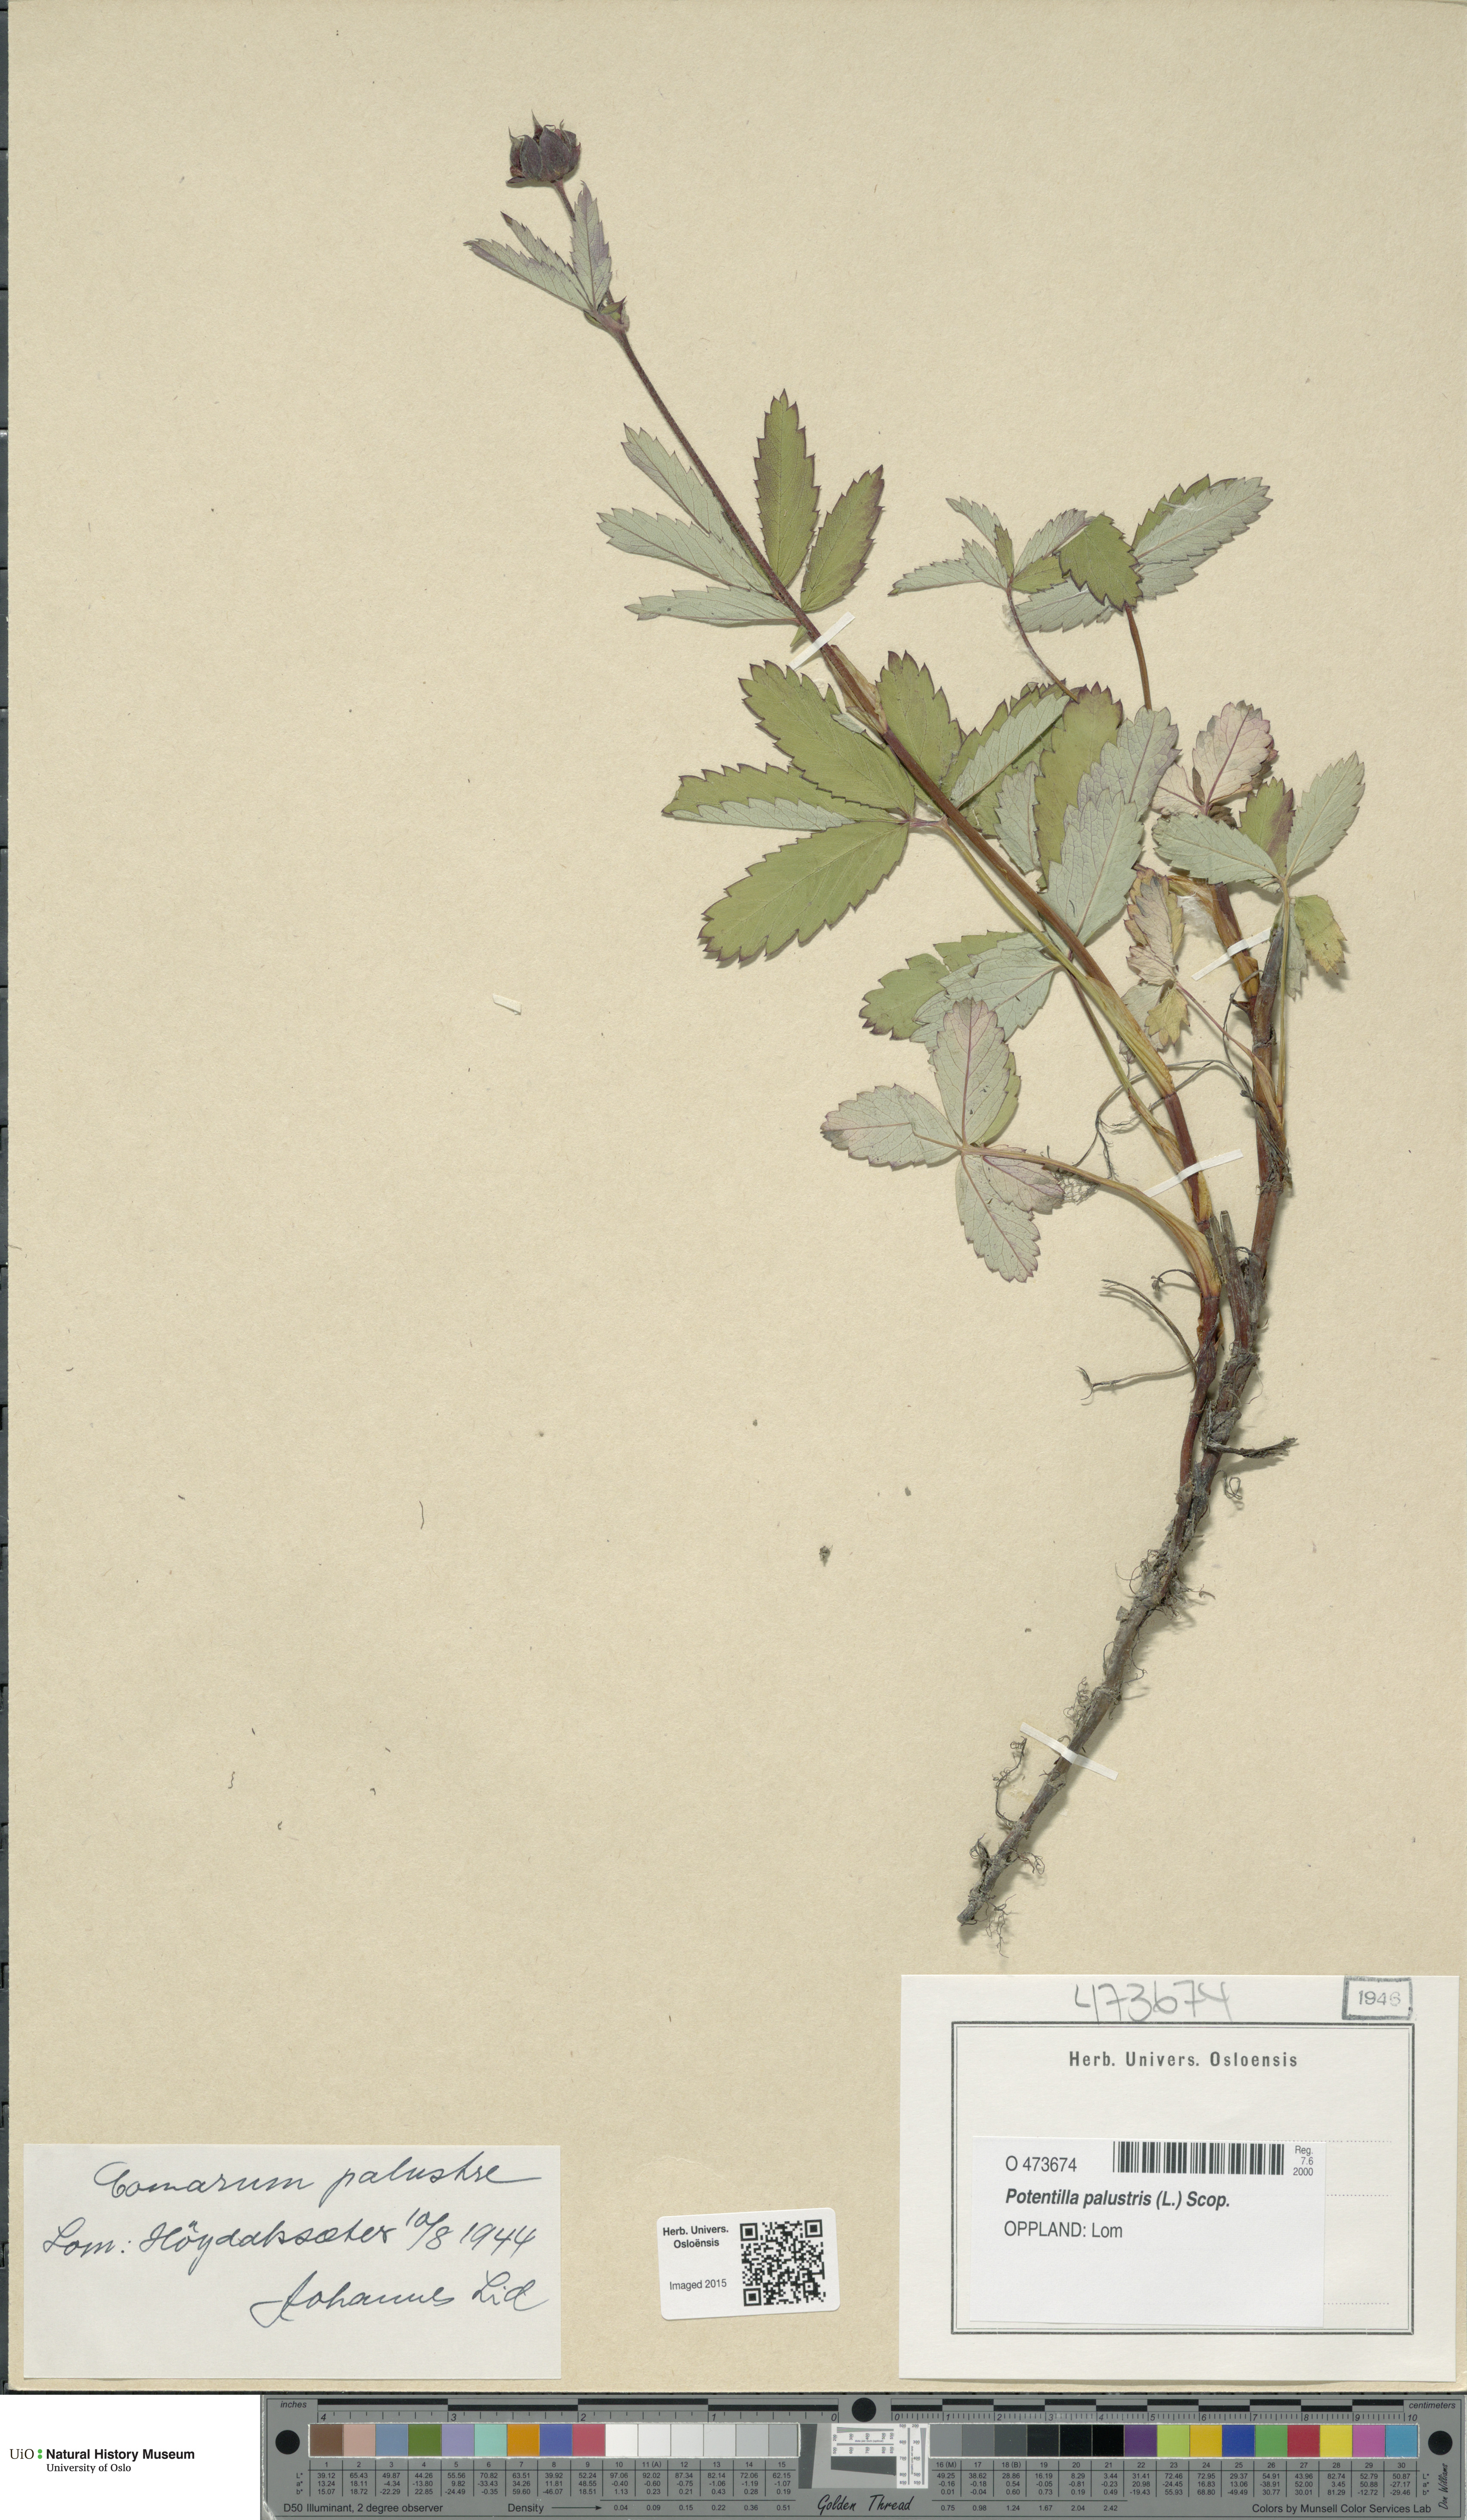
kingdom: Plantae
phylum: Tracheophyta
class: Magnoliopsida
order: Rosales
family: Rosaceae
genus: Comarum
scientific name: Comarum palustre
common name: Marsh cinquefoil
